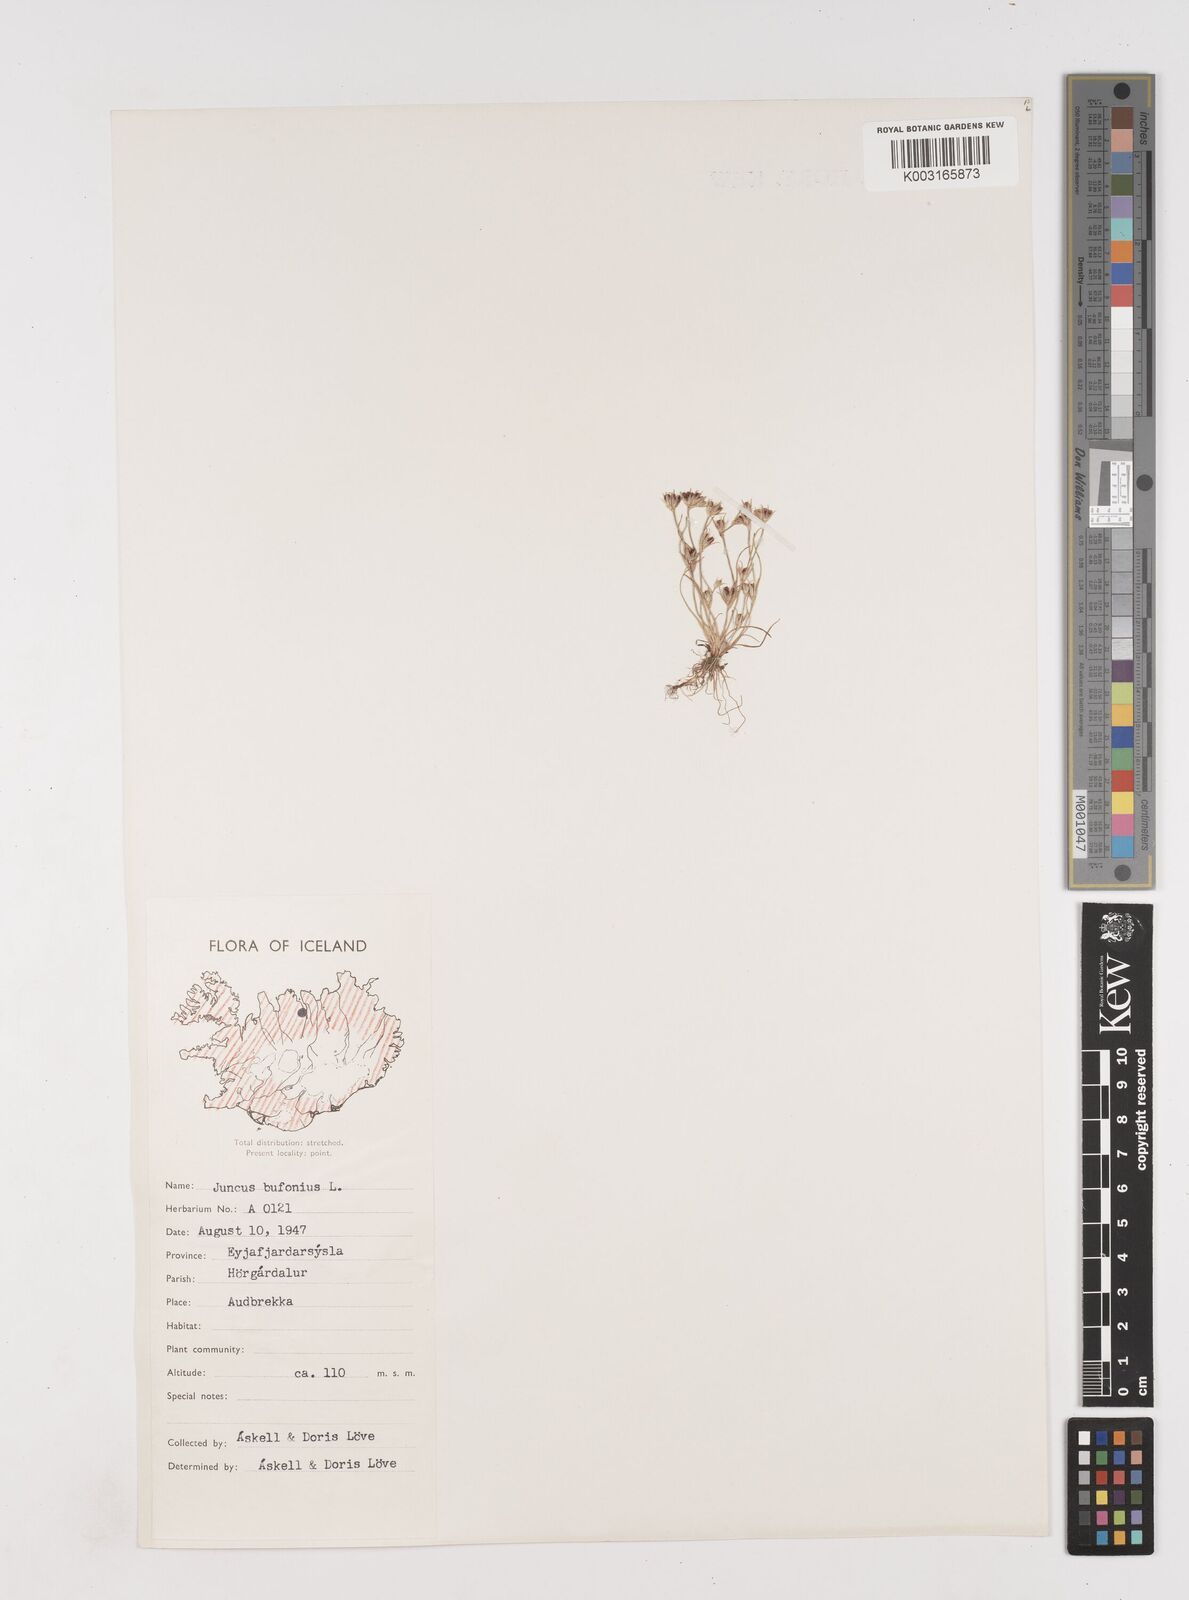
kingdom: Plantae
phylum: Tracheophyta
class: Liliopsida
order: Poales
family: Juncaceae
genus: Juncus
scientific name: Juncus bufonius
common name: Toad rush
